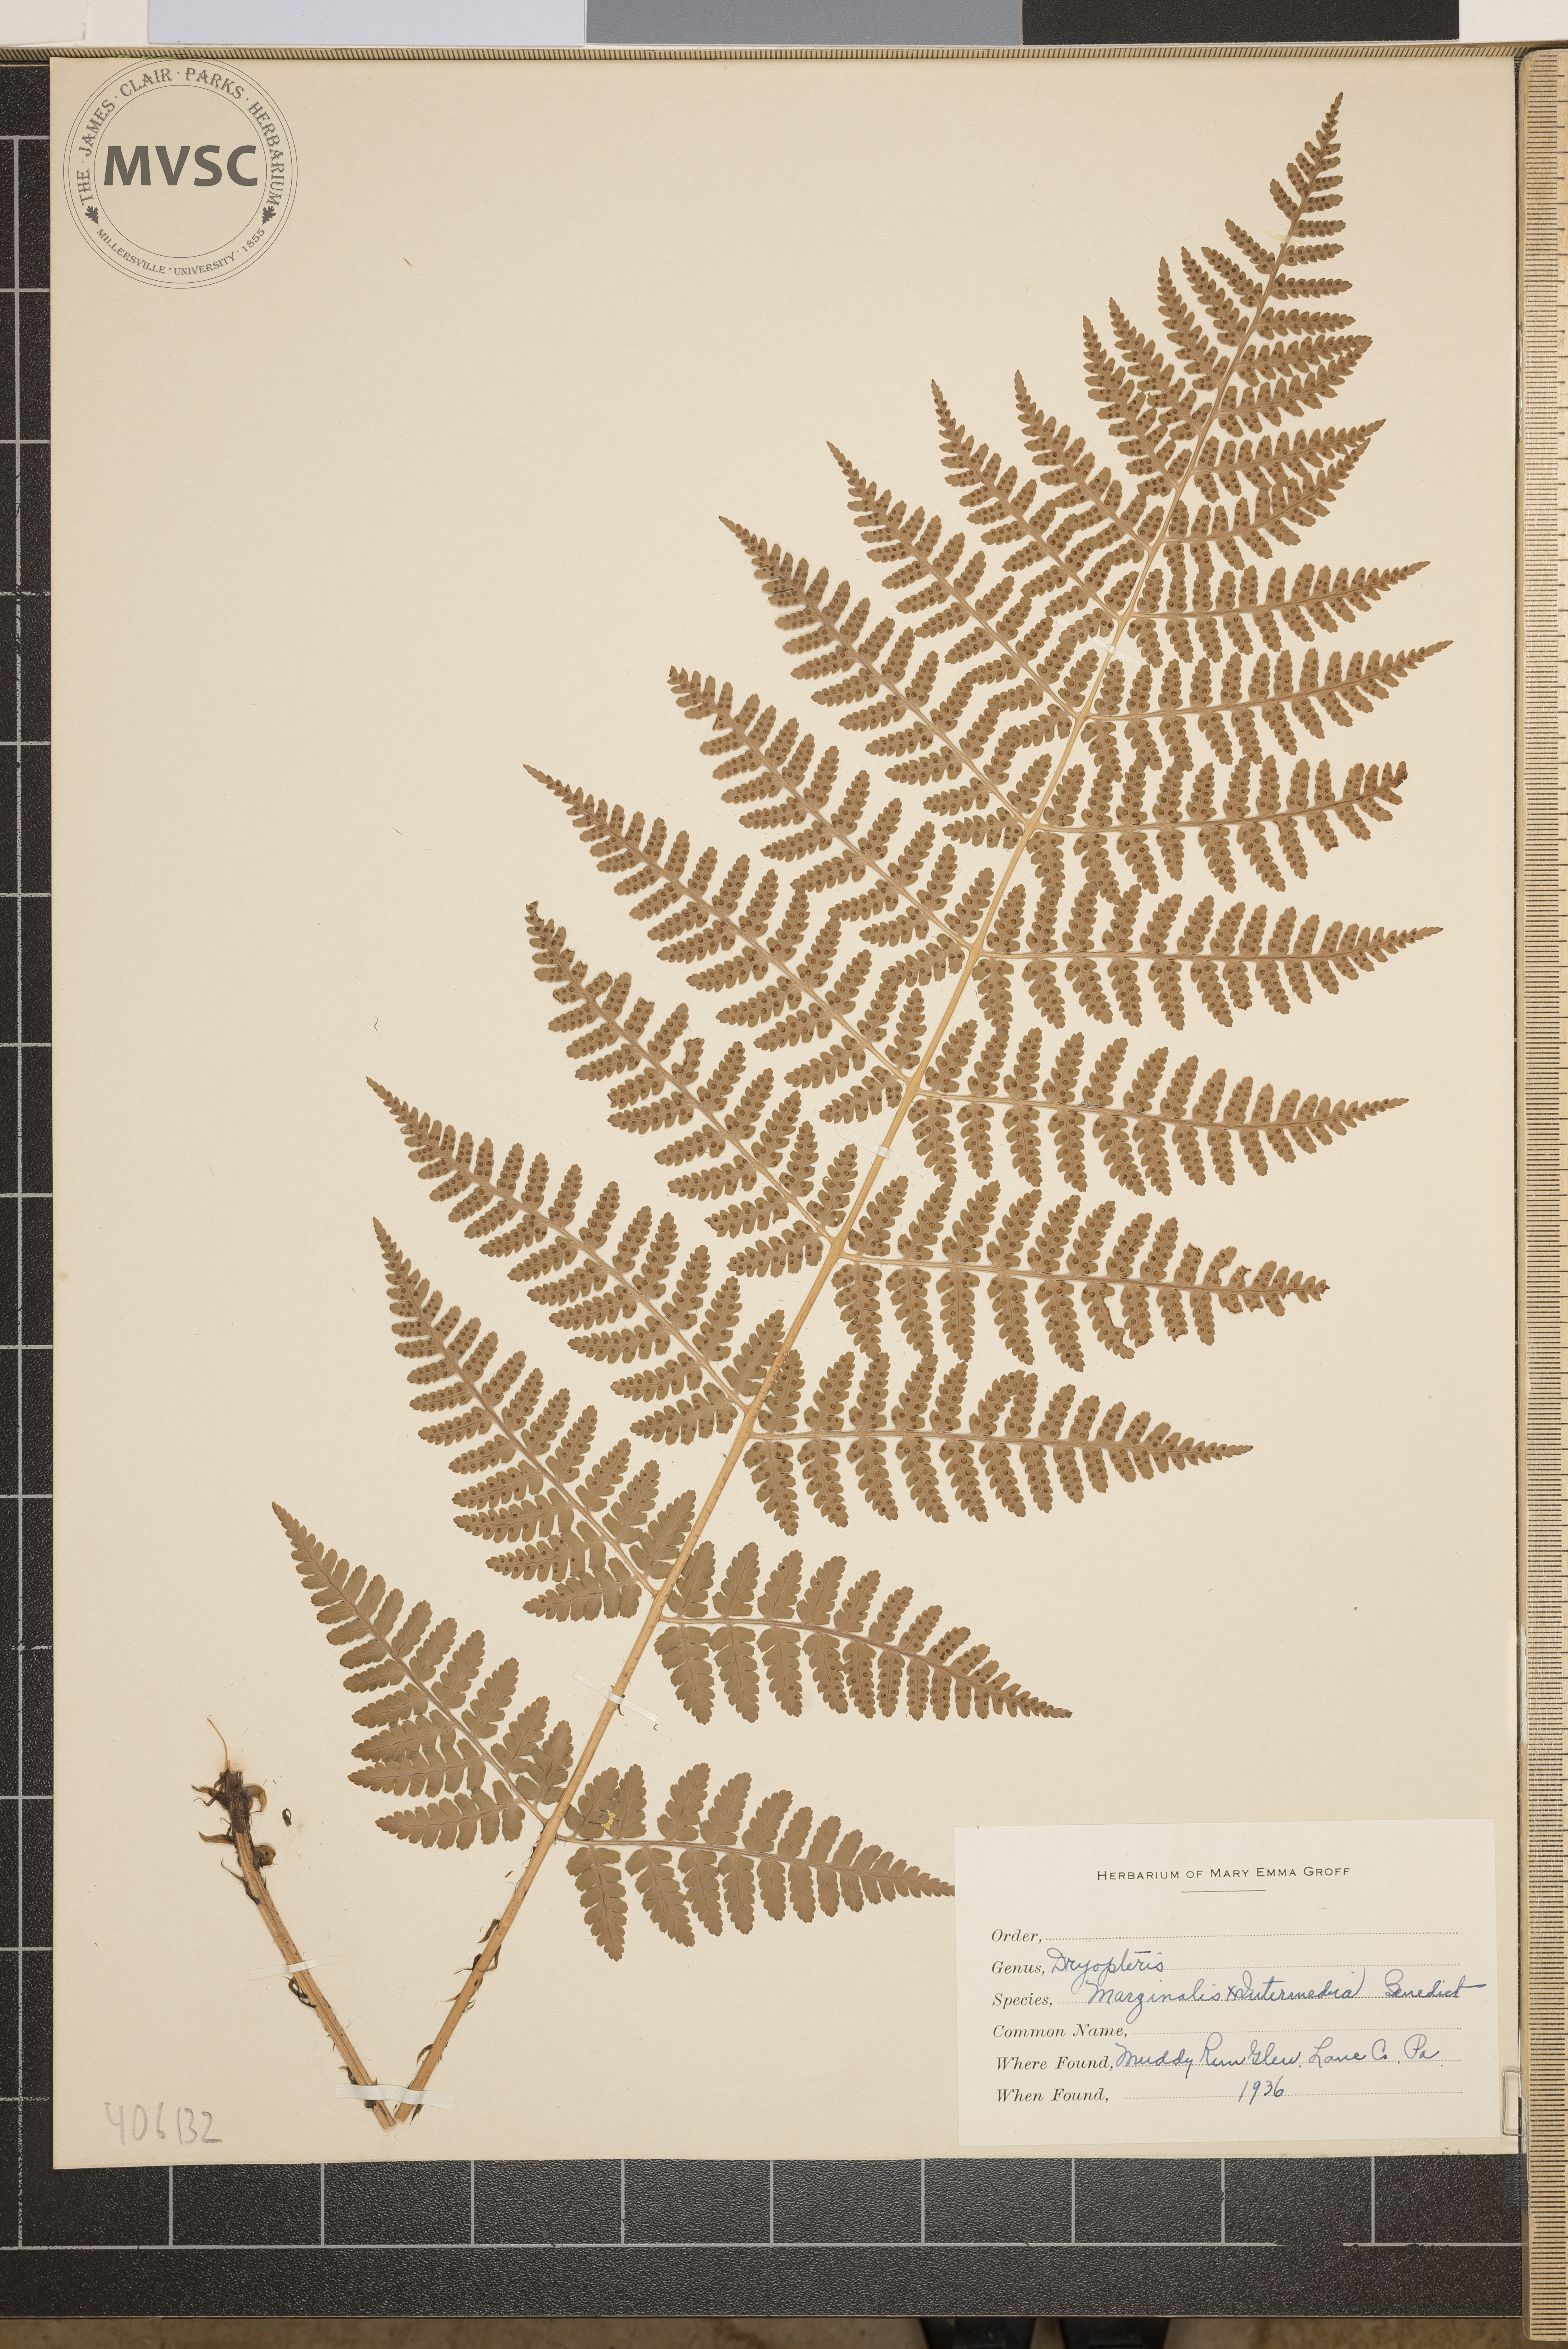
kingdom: Plantae
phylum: Tracheophyta
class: Polypodiopsida
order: Polypodiales
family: Dryopteridaceae
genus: Dryopteris
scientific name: Dryopteris
